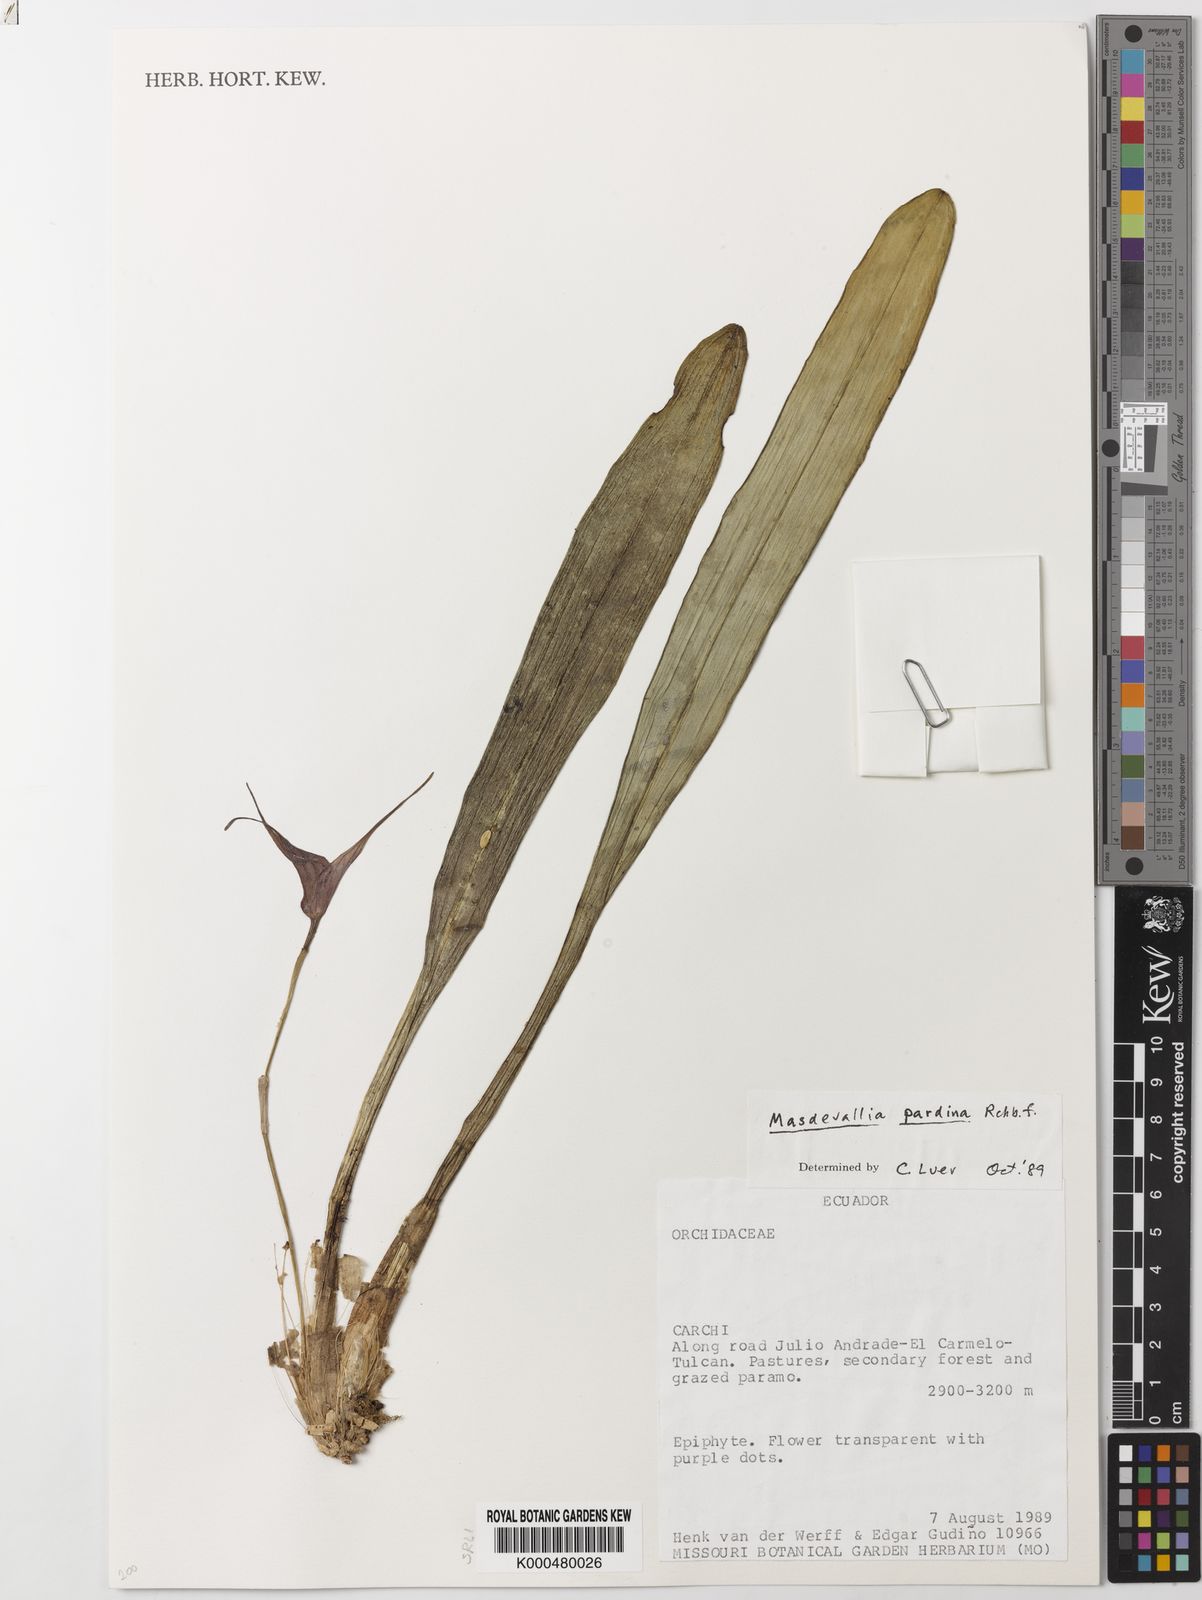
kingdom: Plantae
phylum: Tracheophyta
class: Liliopsida
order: Asparagales
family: Orchidaceae
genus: Masdevallia
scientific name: Masdevallia pardina
